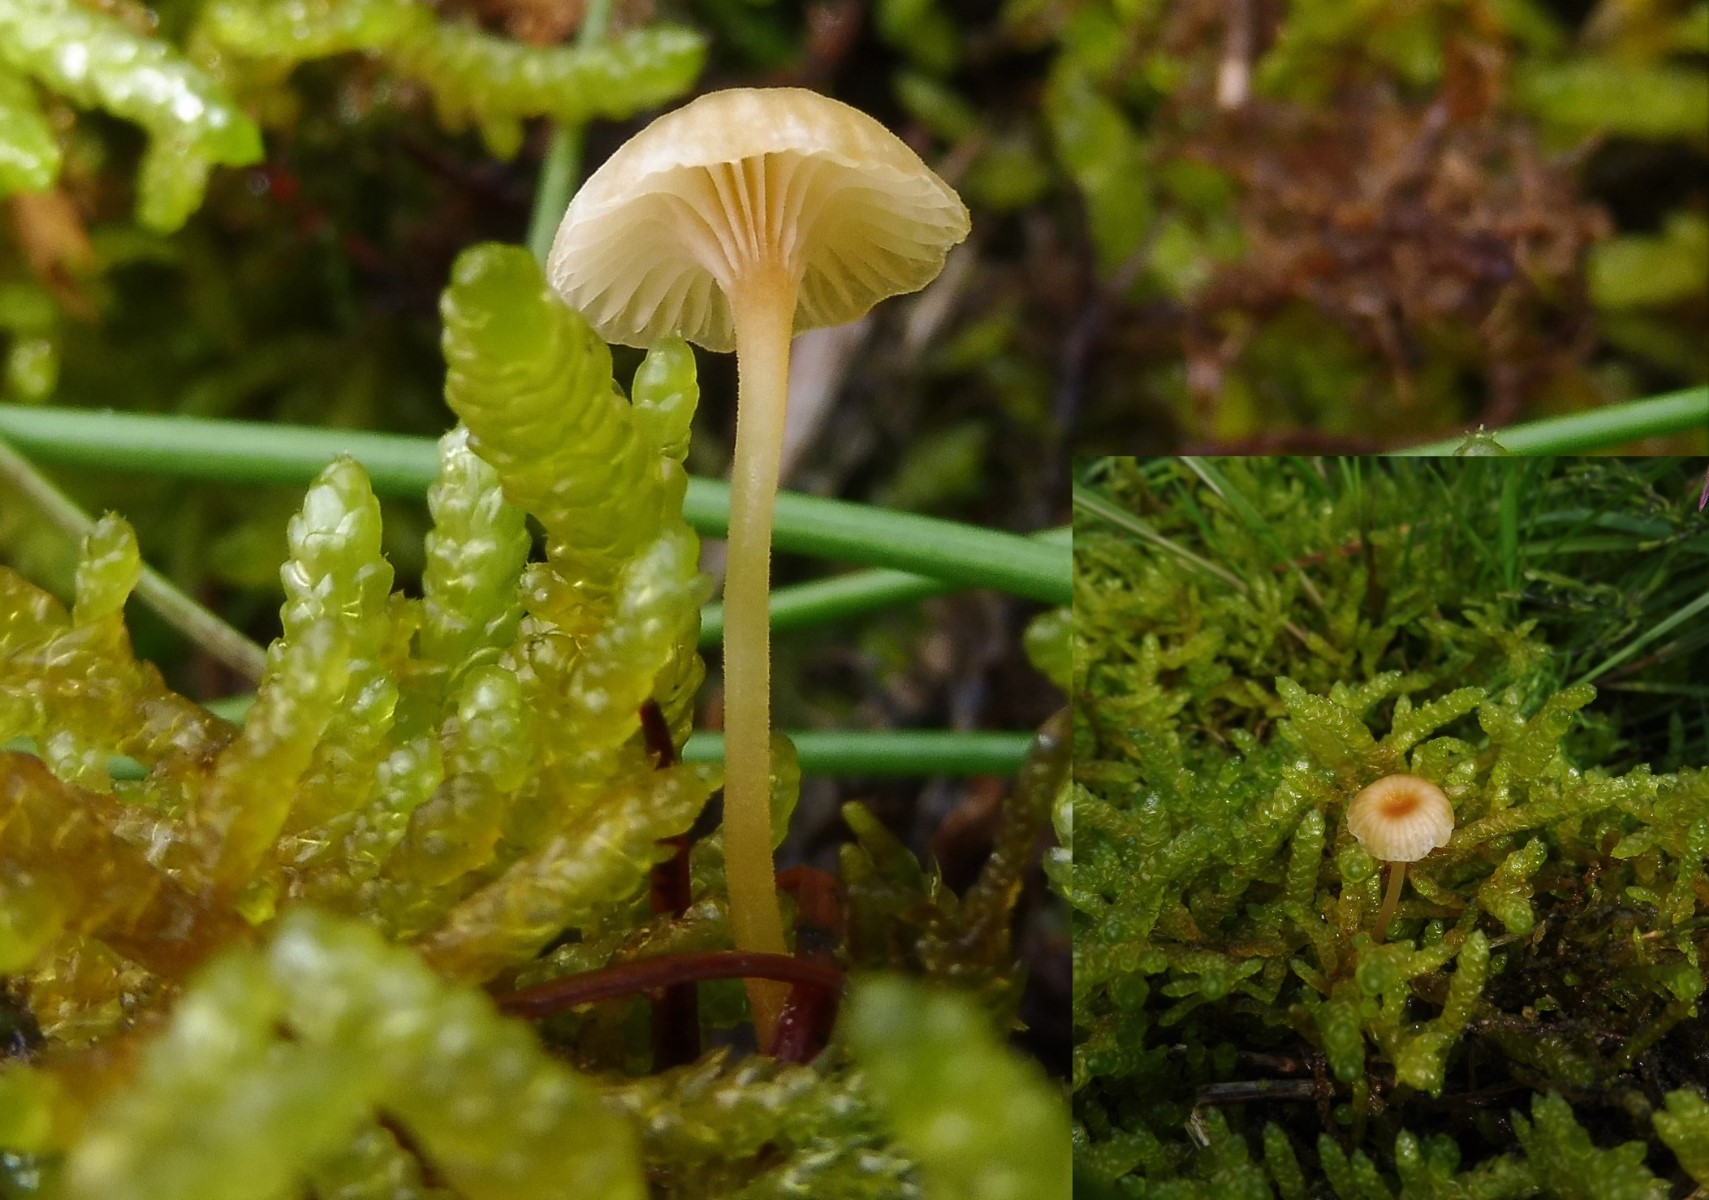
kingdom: Fungi
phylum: Basidiomycota
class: Agaricomycetes
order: Hymenochaetales
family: Rickenellaceae
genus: Rickenella
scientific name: Rickenella fibula
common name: orange mosnavlehat
